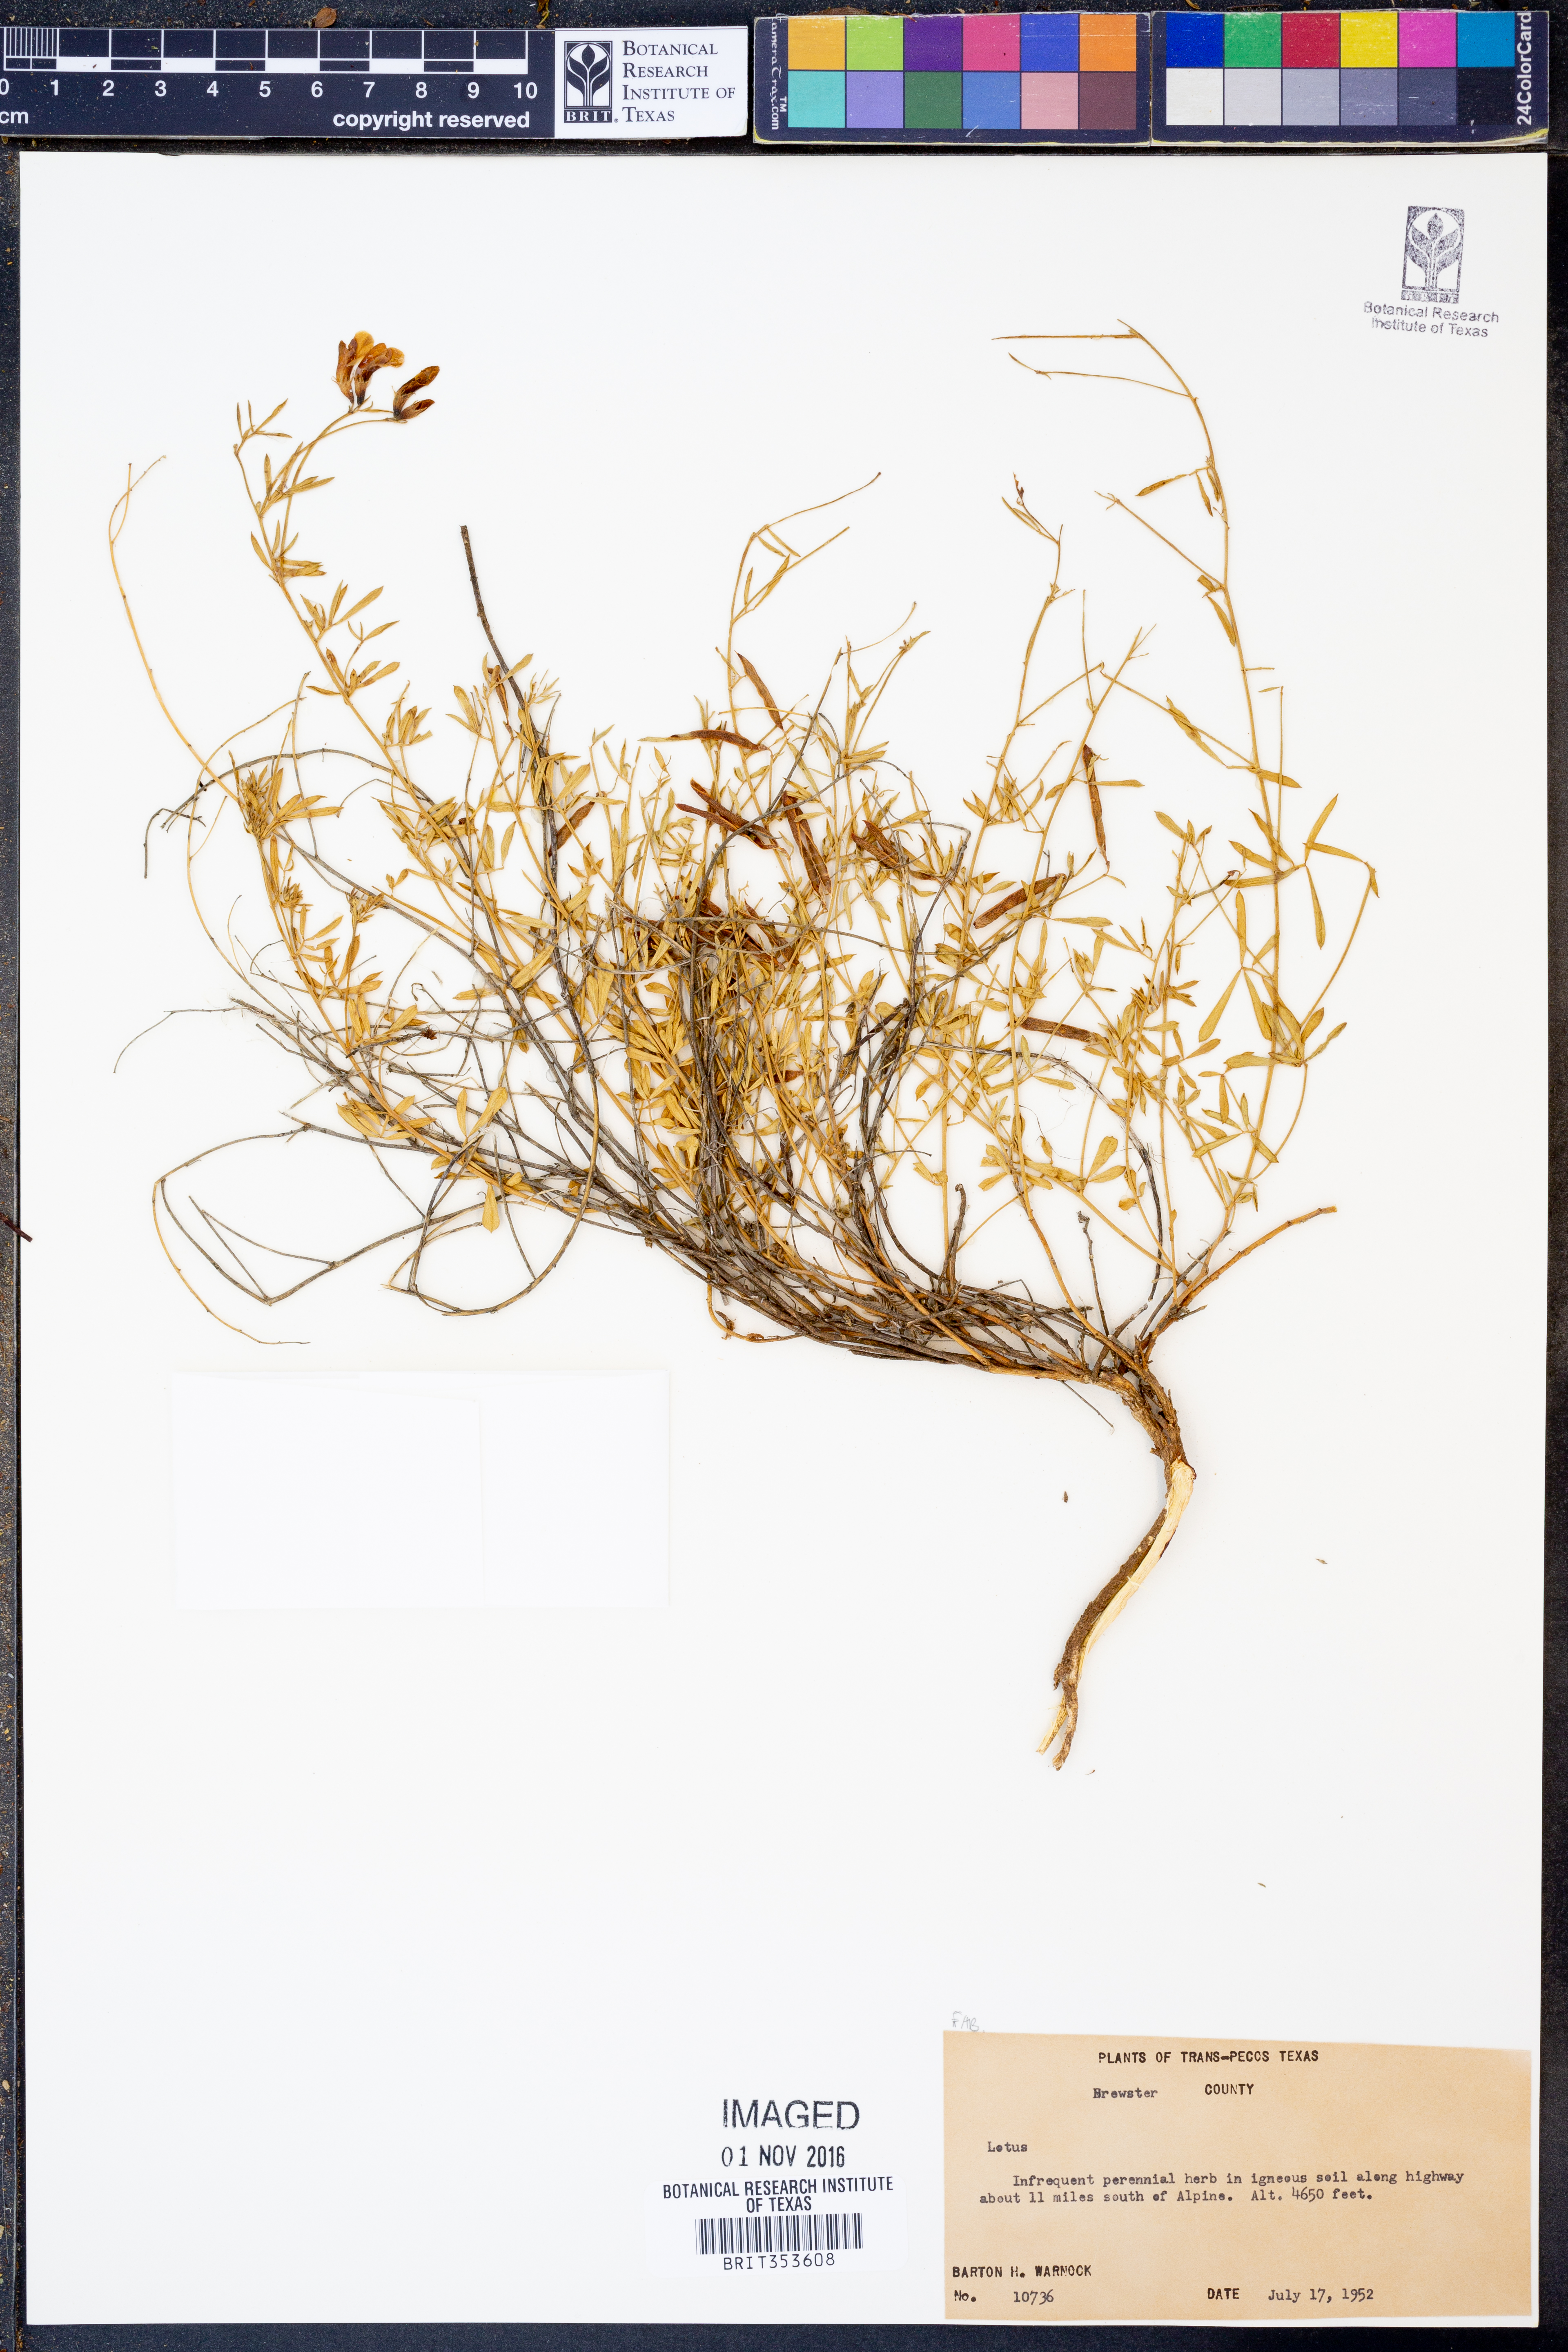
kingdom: Plantae
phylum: Tracheophyta
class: Magnoliopsida
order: Fabales
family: Fabaceae
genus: Lotus
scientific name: Lotus
